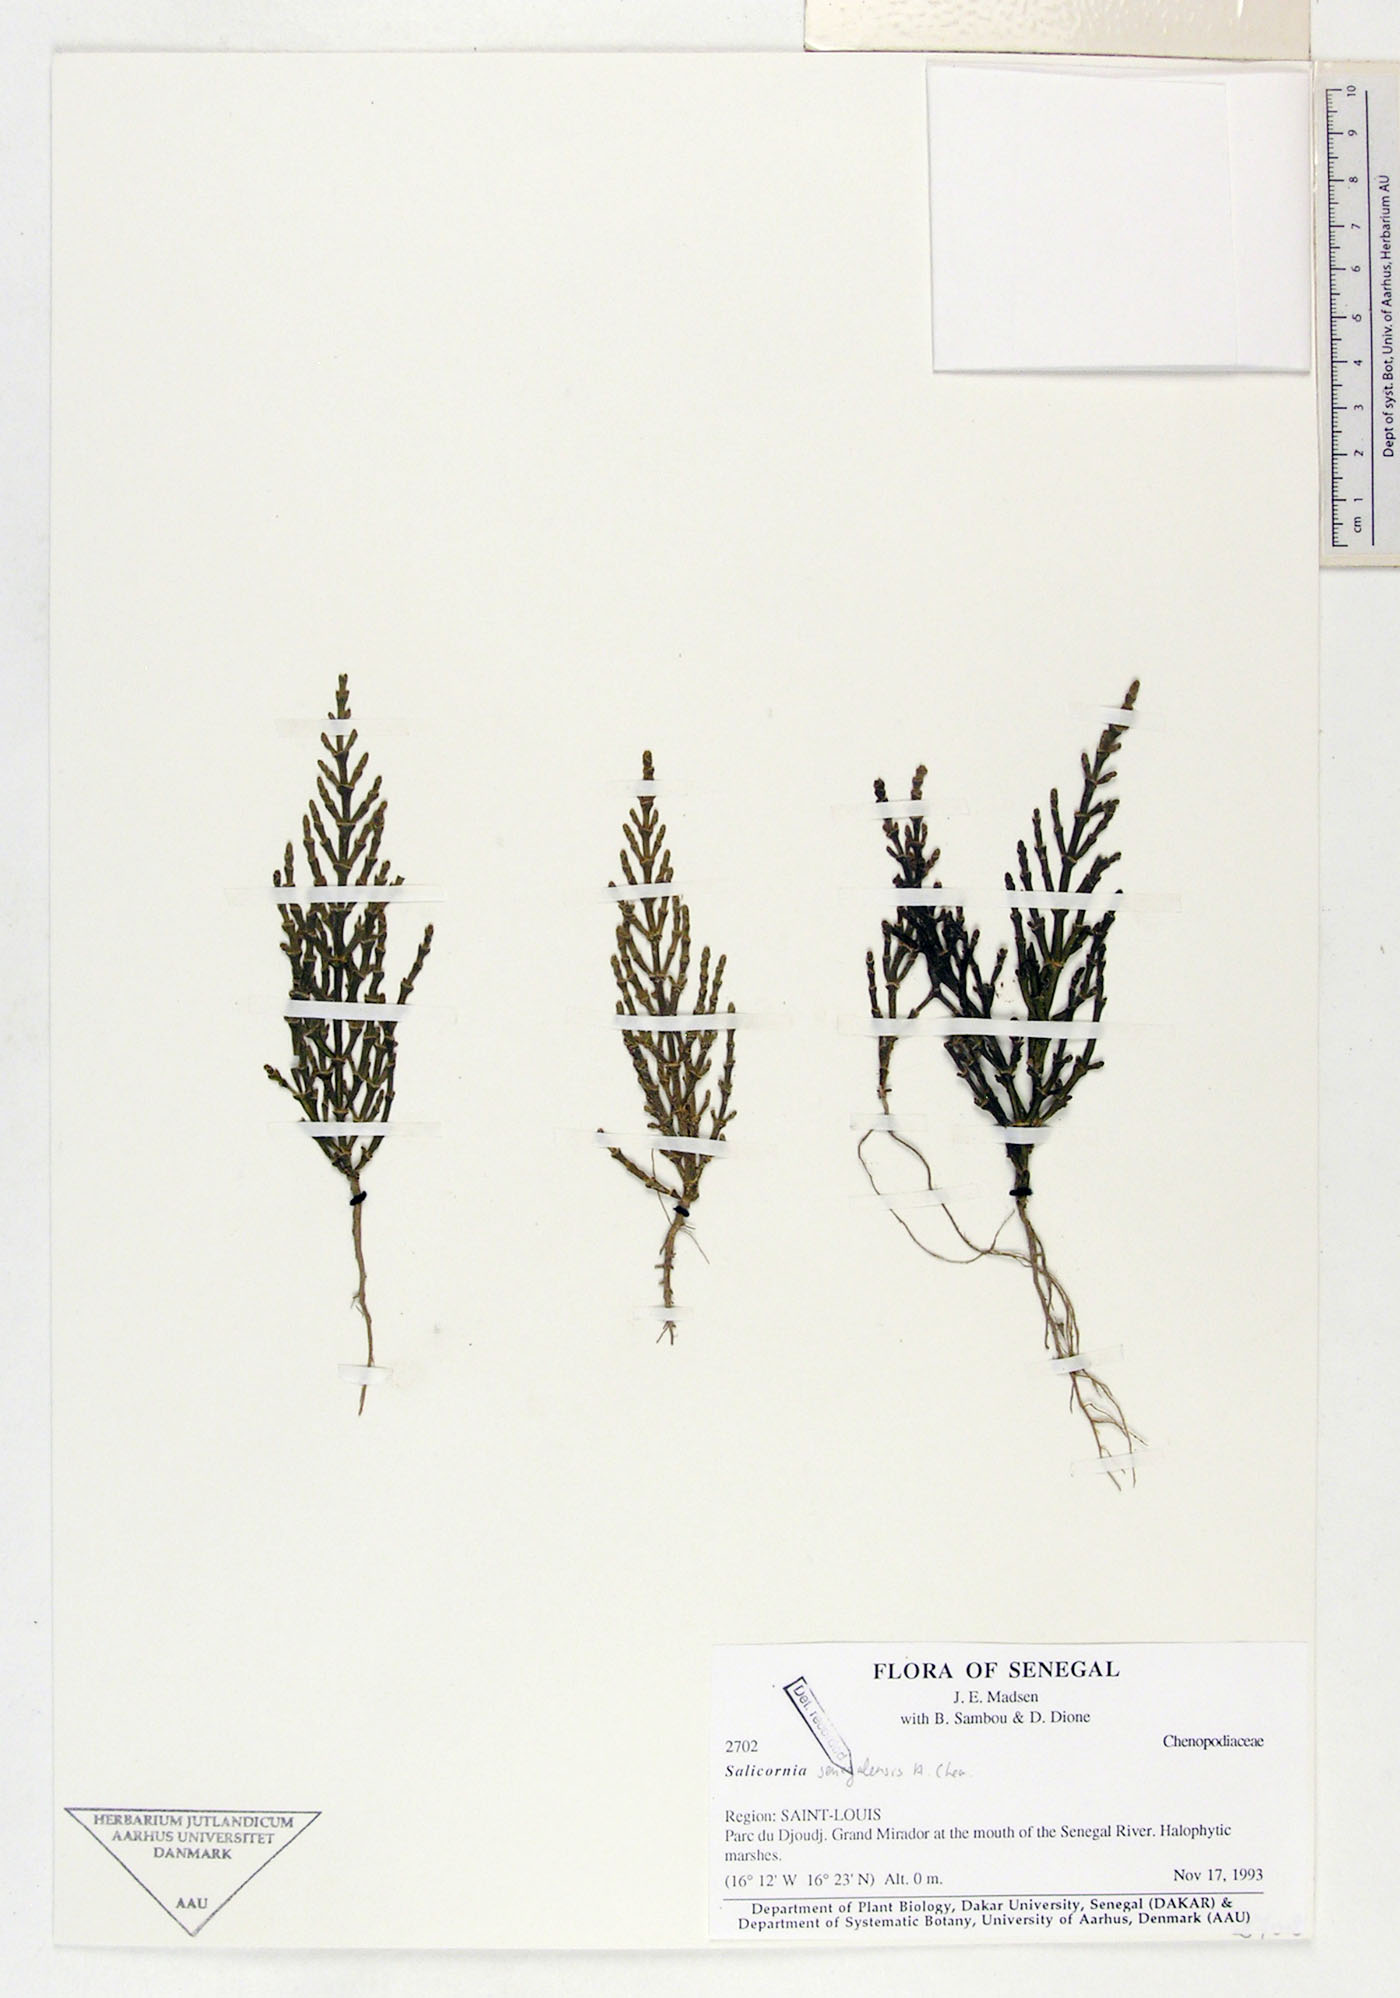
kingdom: Plantae
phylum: Tracheophyta
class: Magnoliopsida
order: Caryophyllales
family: Amaranthaceae
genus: Salicornia
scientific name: Salicornia
